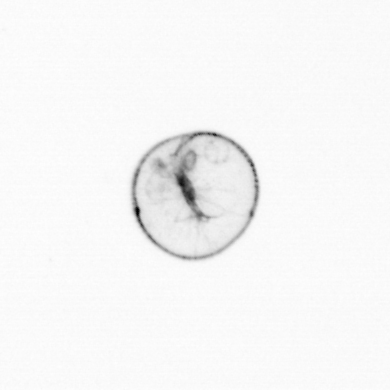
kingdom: Chromista
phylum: Myzozoa
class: Dinophyceae
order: Noctilucales
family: Noctilucaceae
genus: Noctiluca
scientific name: Noctiluca scintillans
